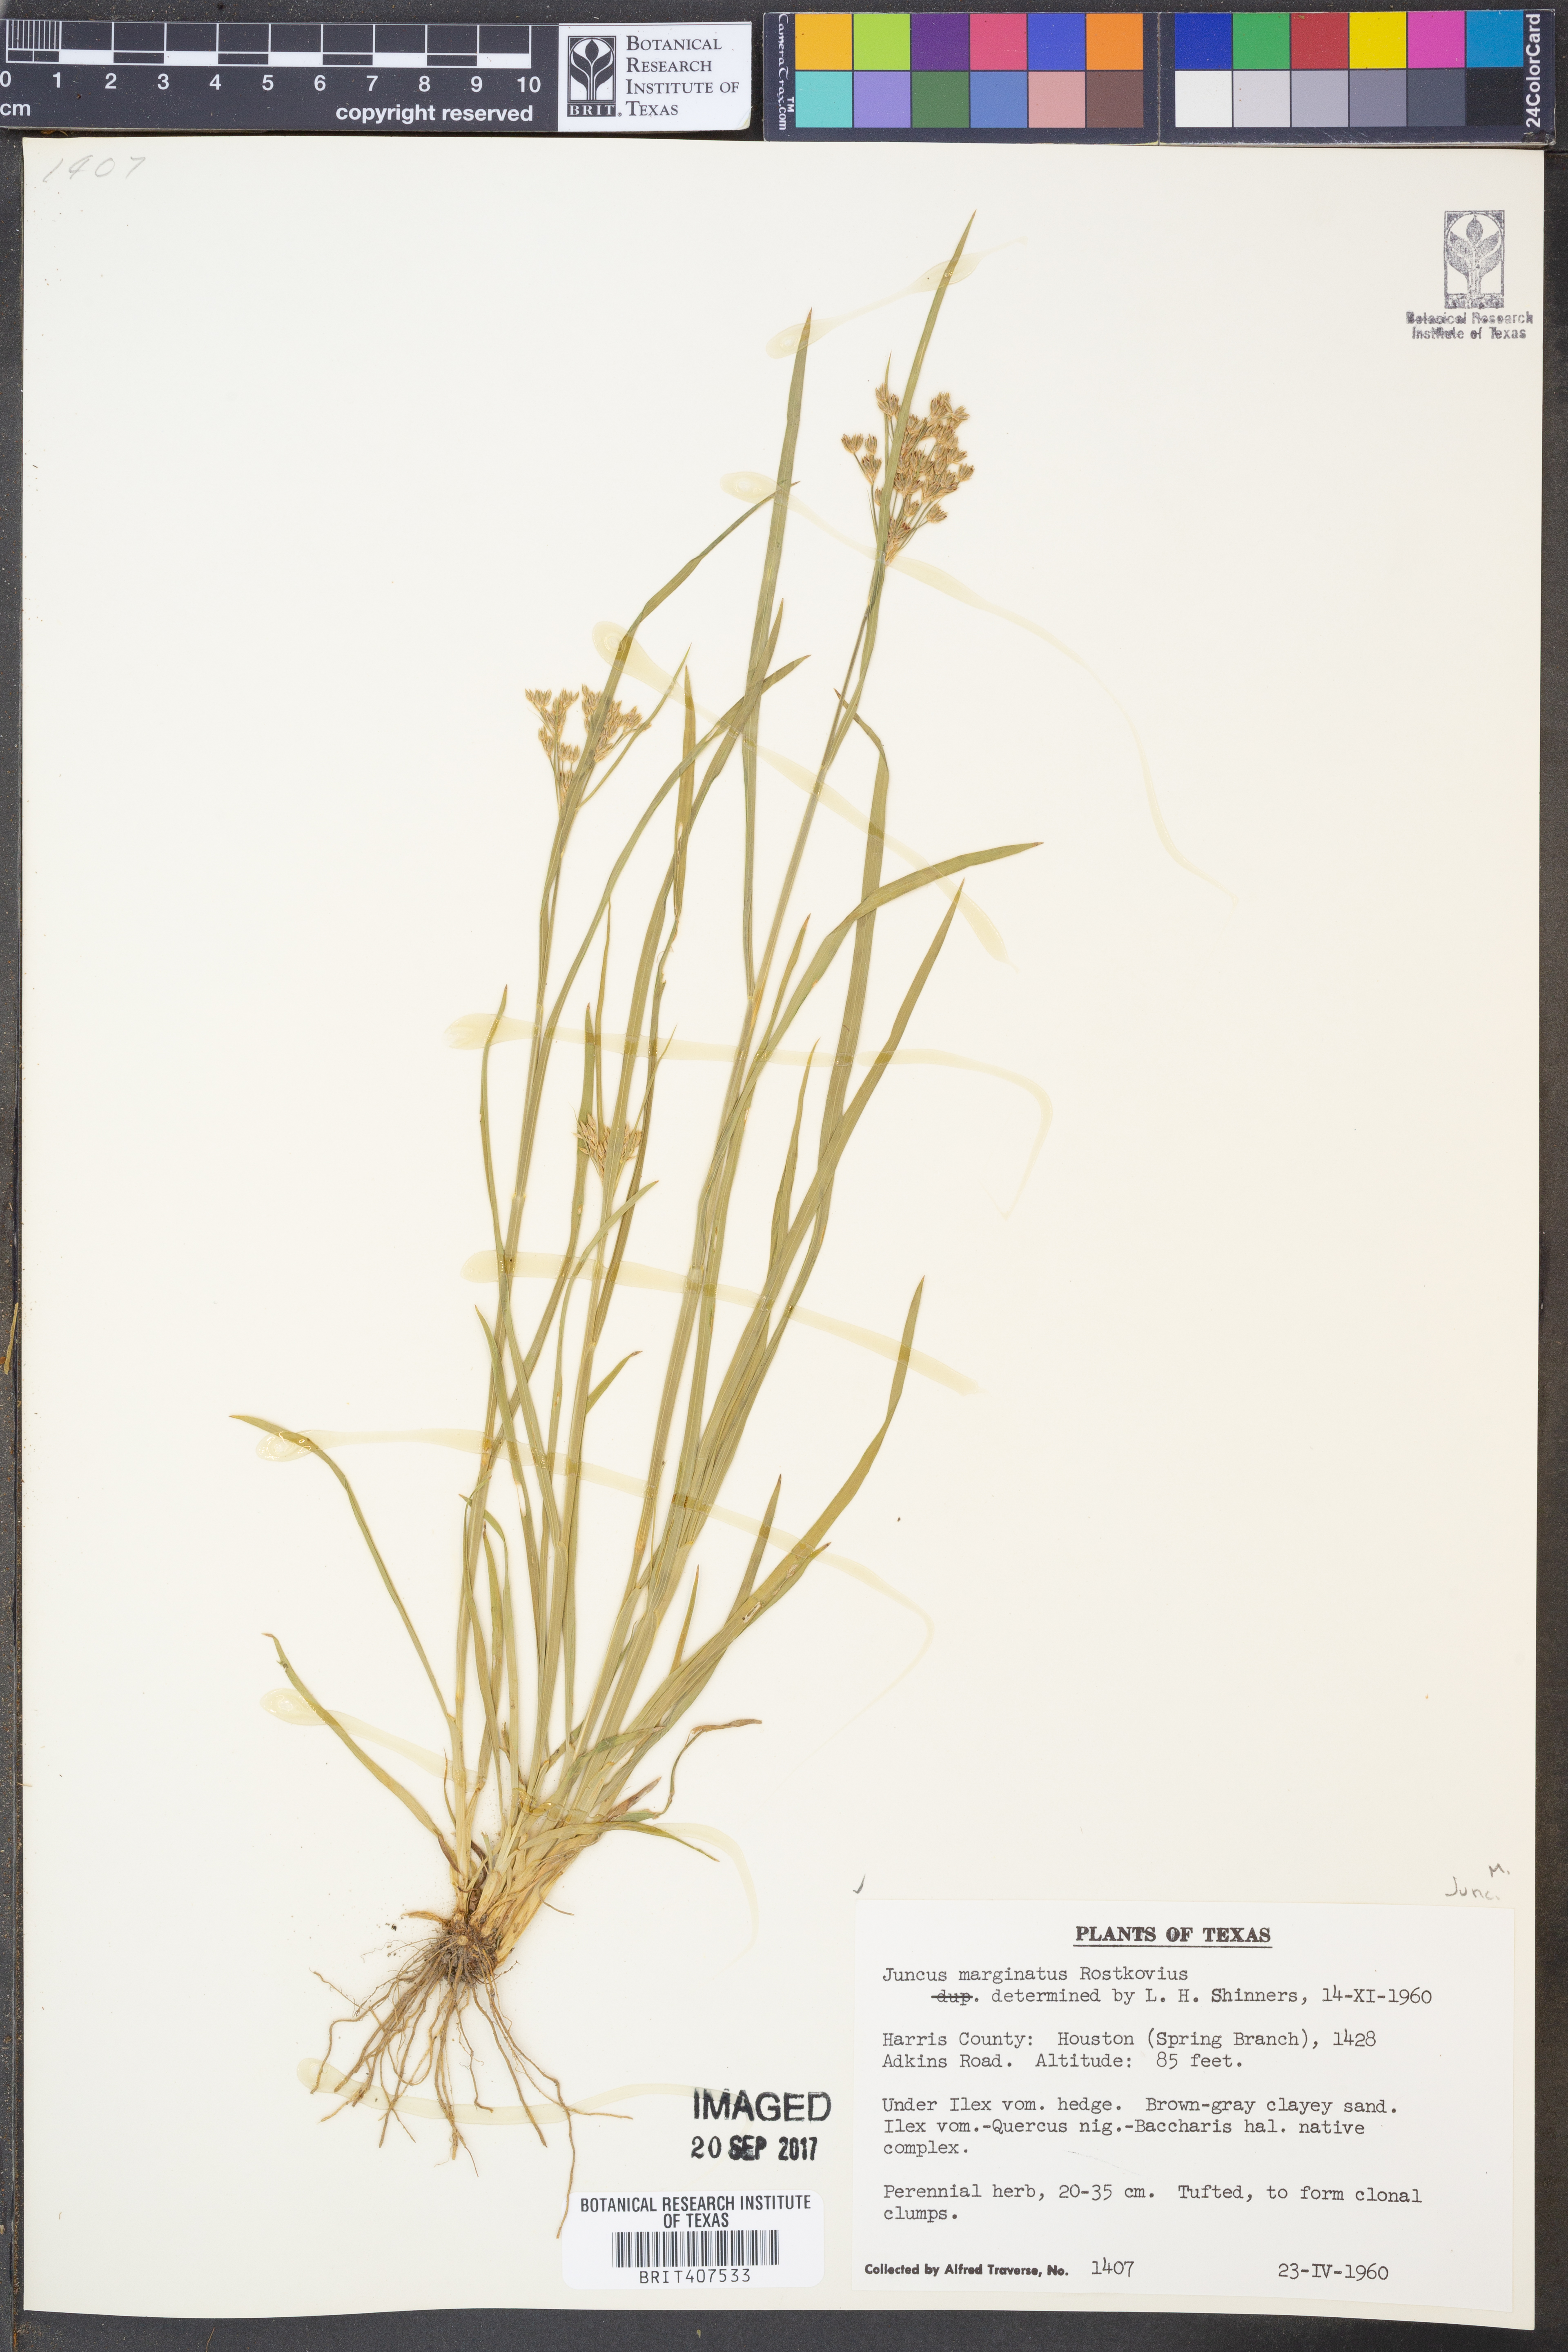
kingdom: Plantae
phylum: Tracheophyta
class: Liliopsida
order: Poales
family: Juncaceae
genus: Juncus
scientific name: Juncus marginatus
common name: Grass-leaf rush
